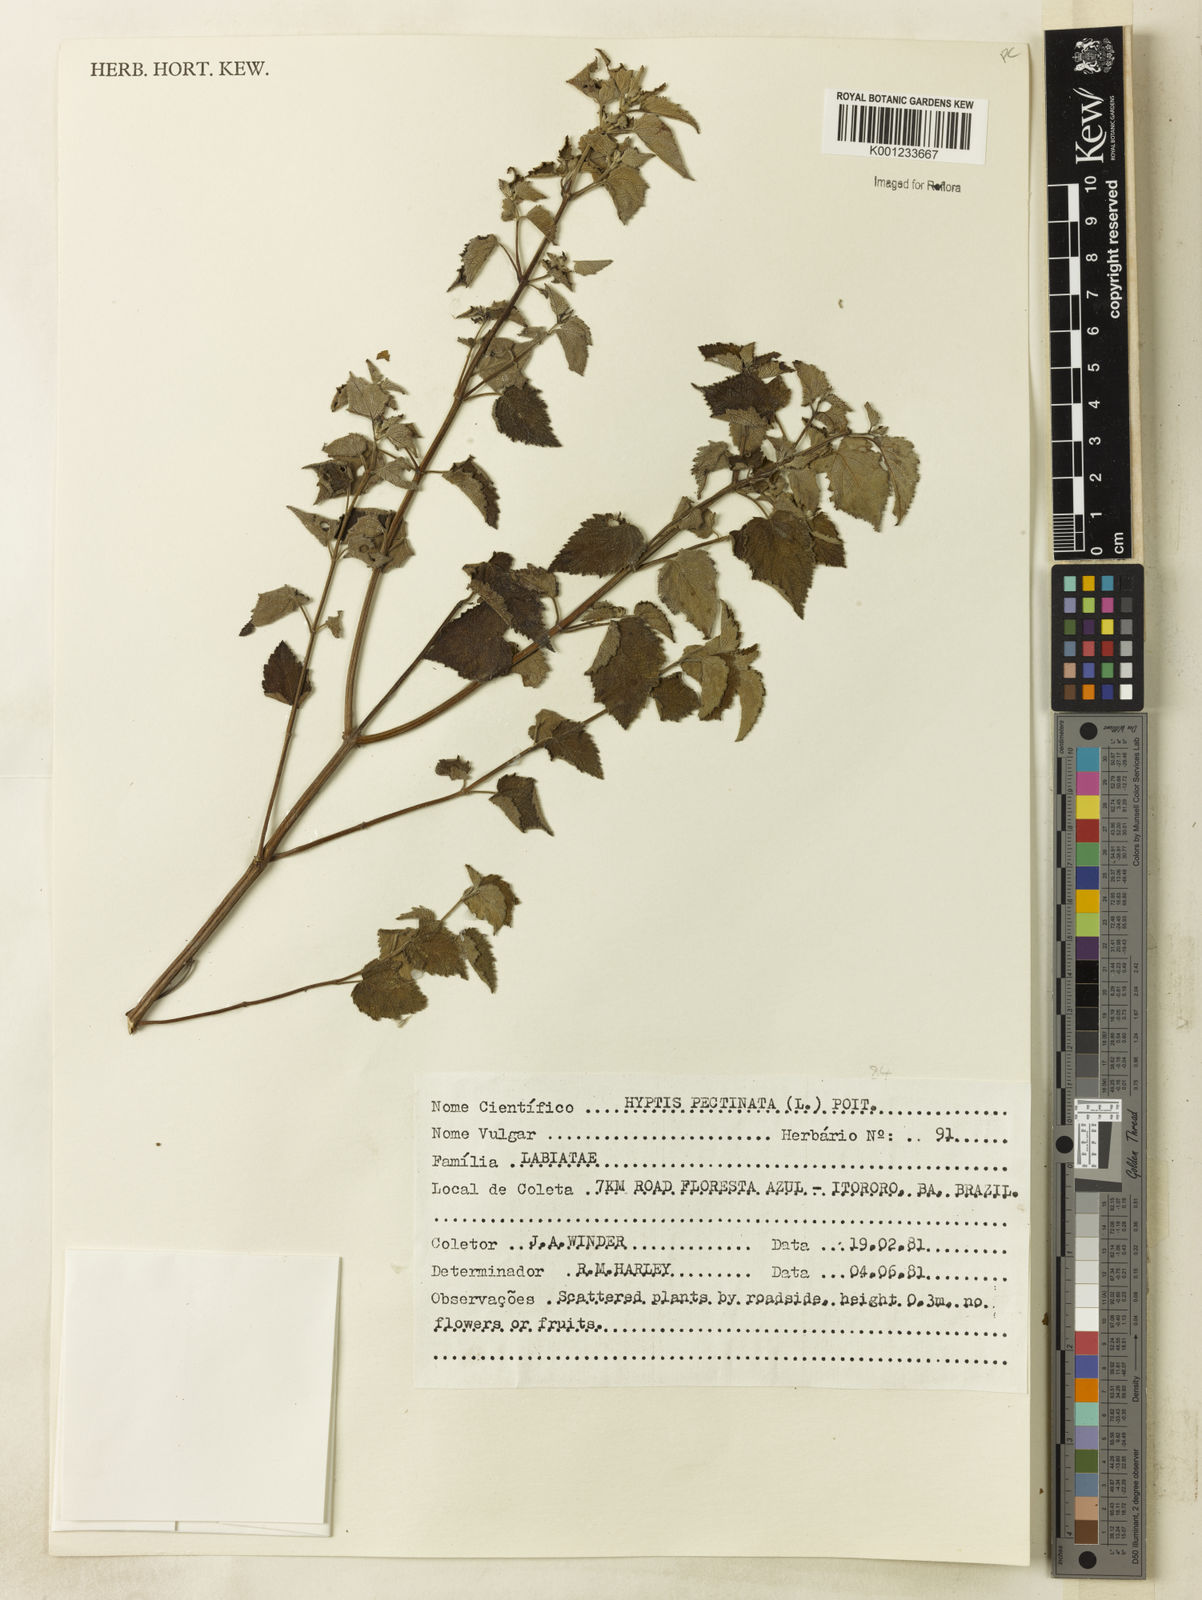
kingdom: Plantae
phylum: Tracheophyta
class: Magnoliopsida
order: Lamiales
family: Lamiaceae
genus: Mesosphaerum
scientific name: Mesosphaerum pectinatum
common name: Comb hyptis
